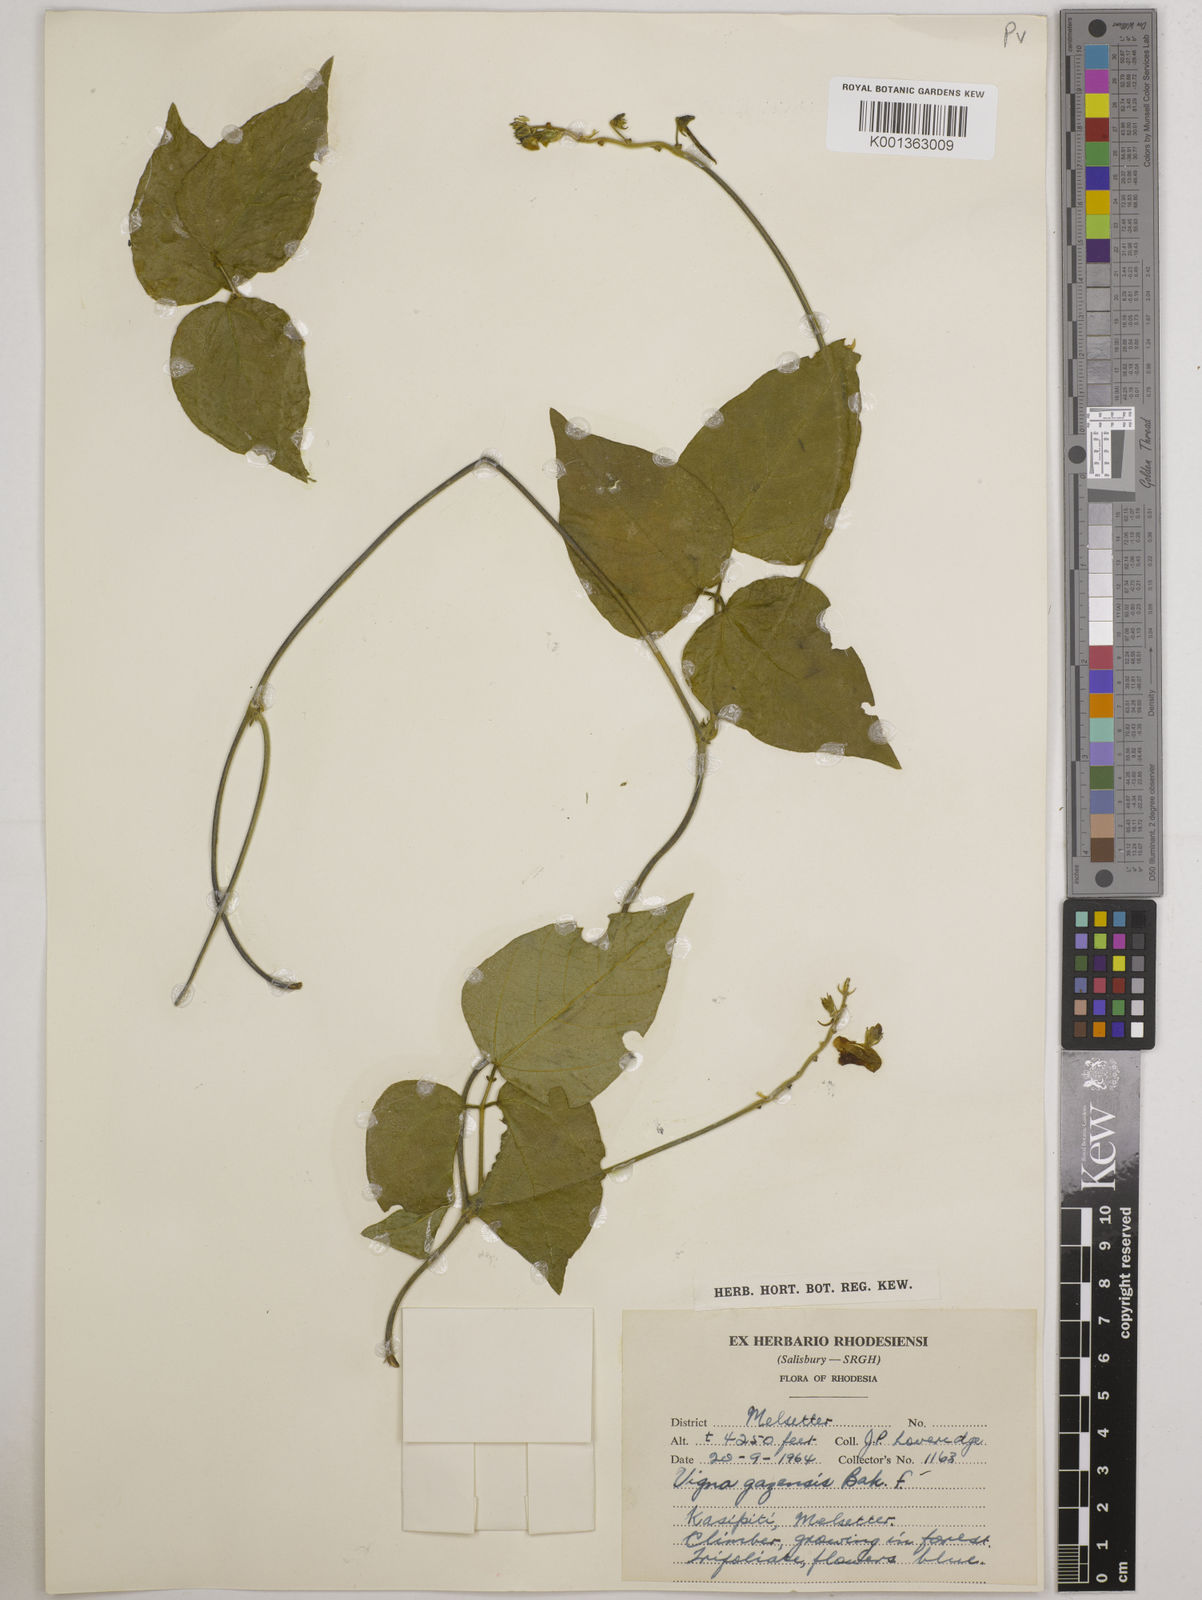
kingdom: Plantae
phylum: Tracheophyta
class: Magnoliopsida
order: Fabales
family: Fabaceae
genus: Vigna
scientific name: Vigna gazensis
